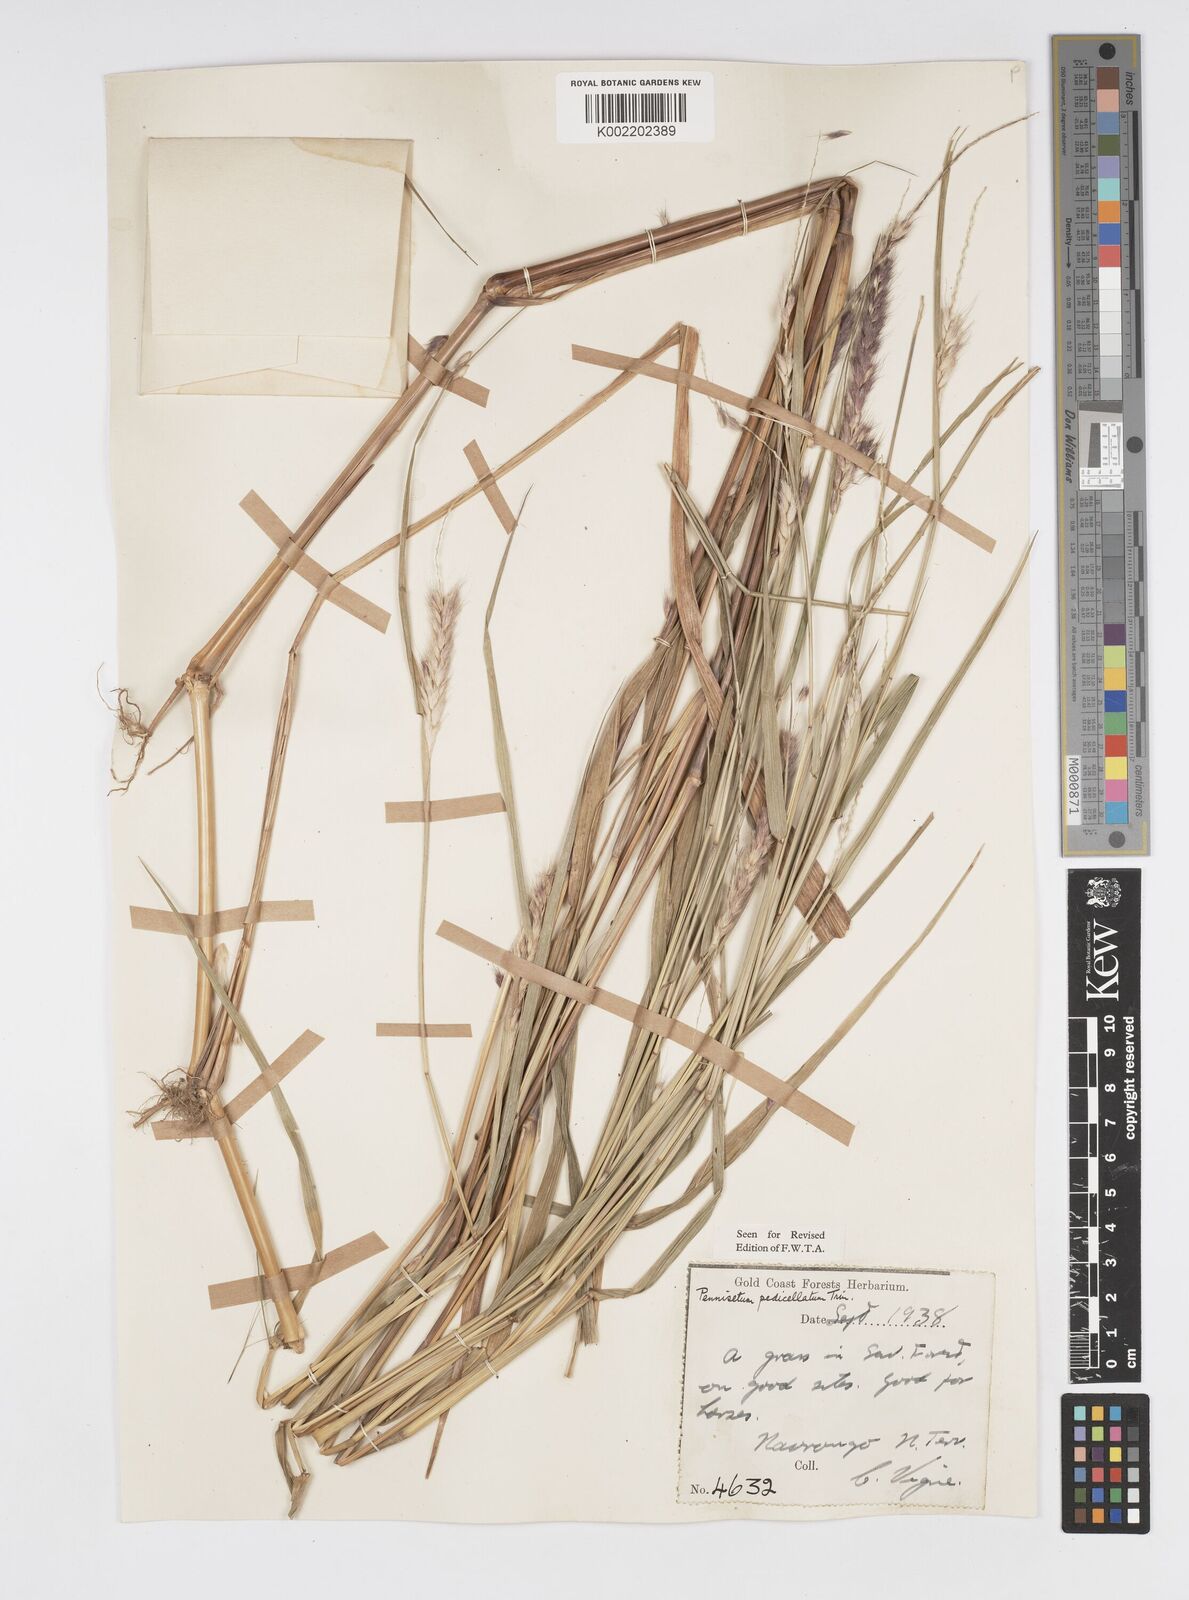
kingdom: Plantae
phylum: Tracheophyta
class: Liliopsida
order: Poales
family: Poaceae
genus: Cenchrus
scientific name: Cenchrus pedicellatus
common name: Hairy fountain grass
